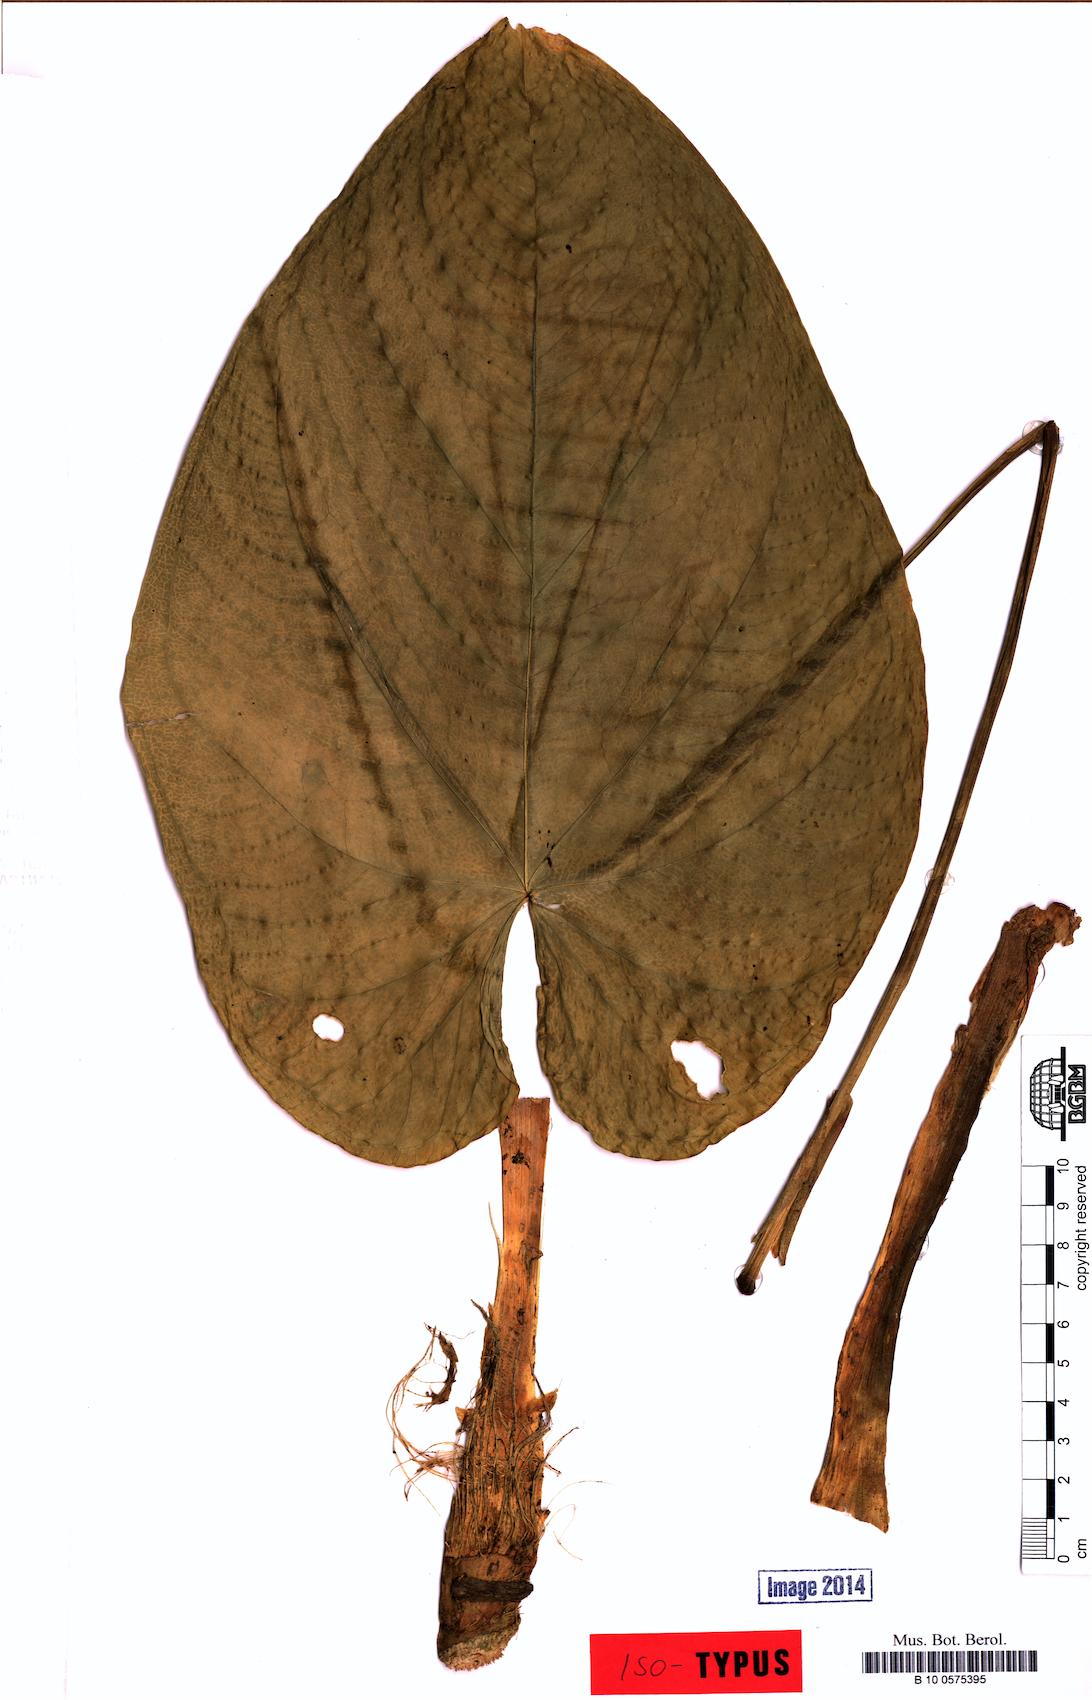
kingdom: Plantae
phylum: Tracheophyta
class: Liliopsida
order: Alismatales
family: Araceae
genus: Anthurium
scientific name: Anthurium ramosense
